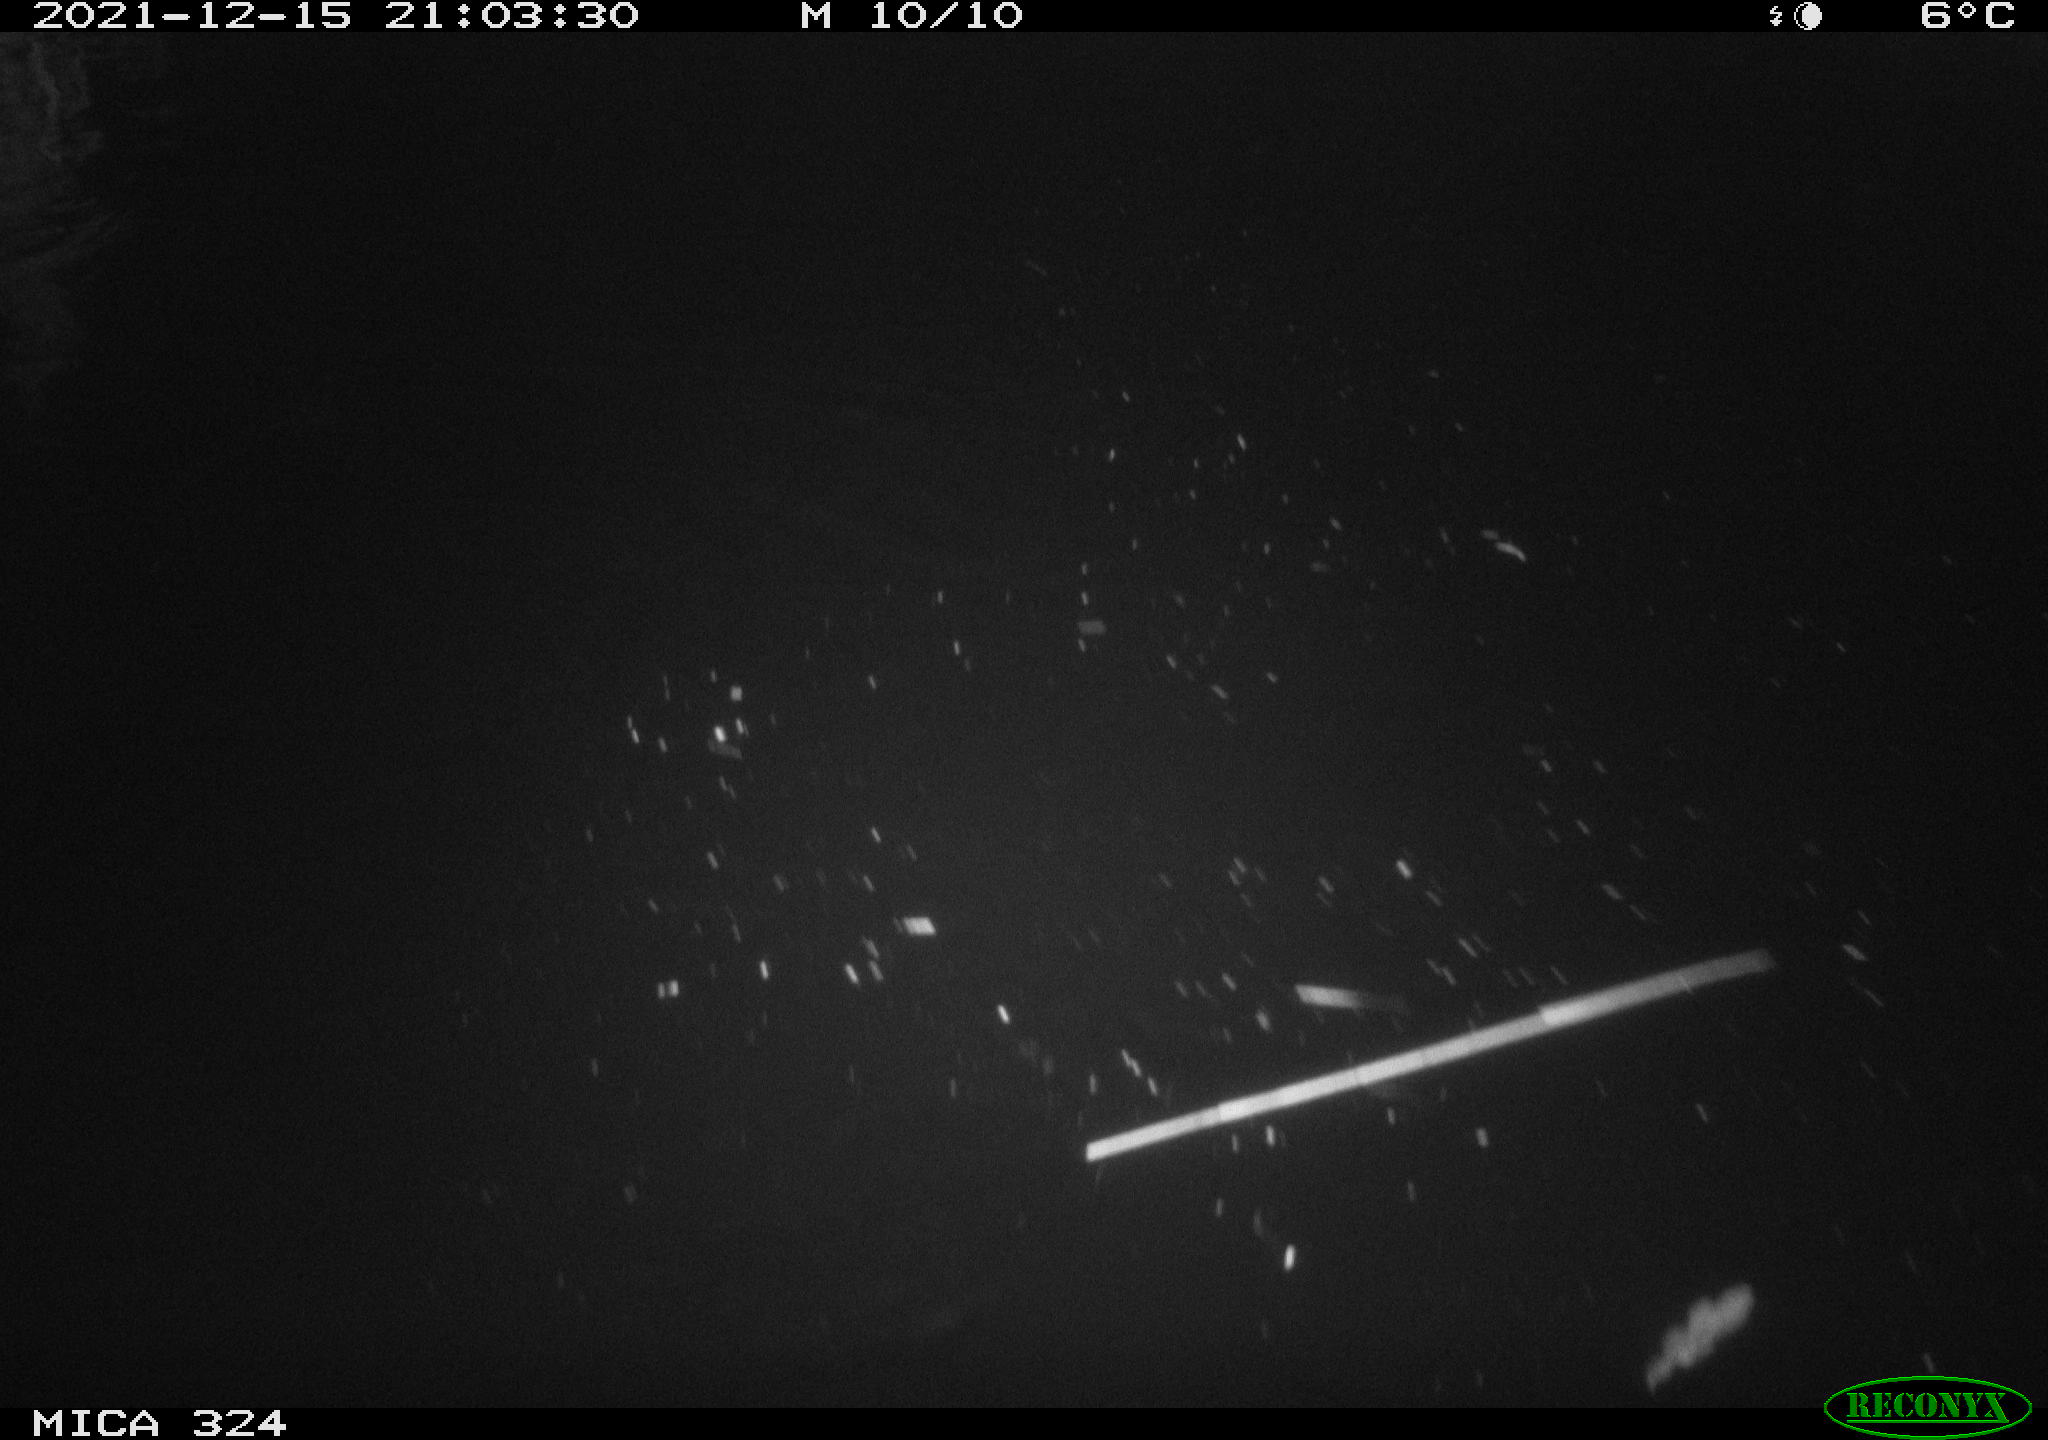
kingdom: Animalia
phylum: Chordata
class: Mammalia
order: Rodentia
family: Cricetidae
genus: Ondatra
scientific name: Ondatra zibethicus
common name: Muskrat
